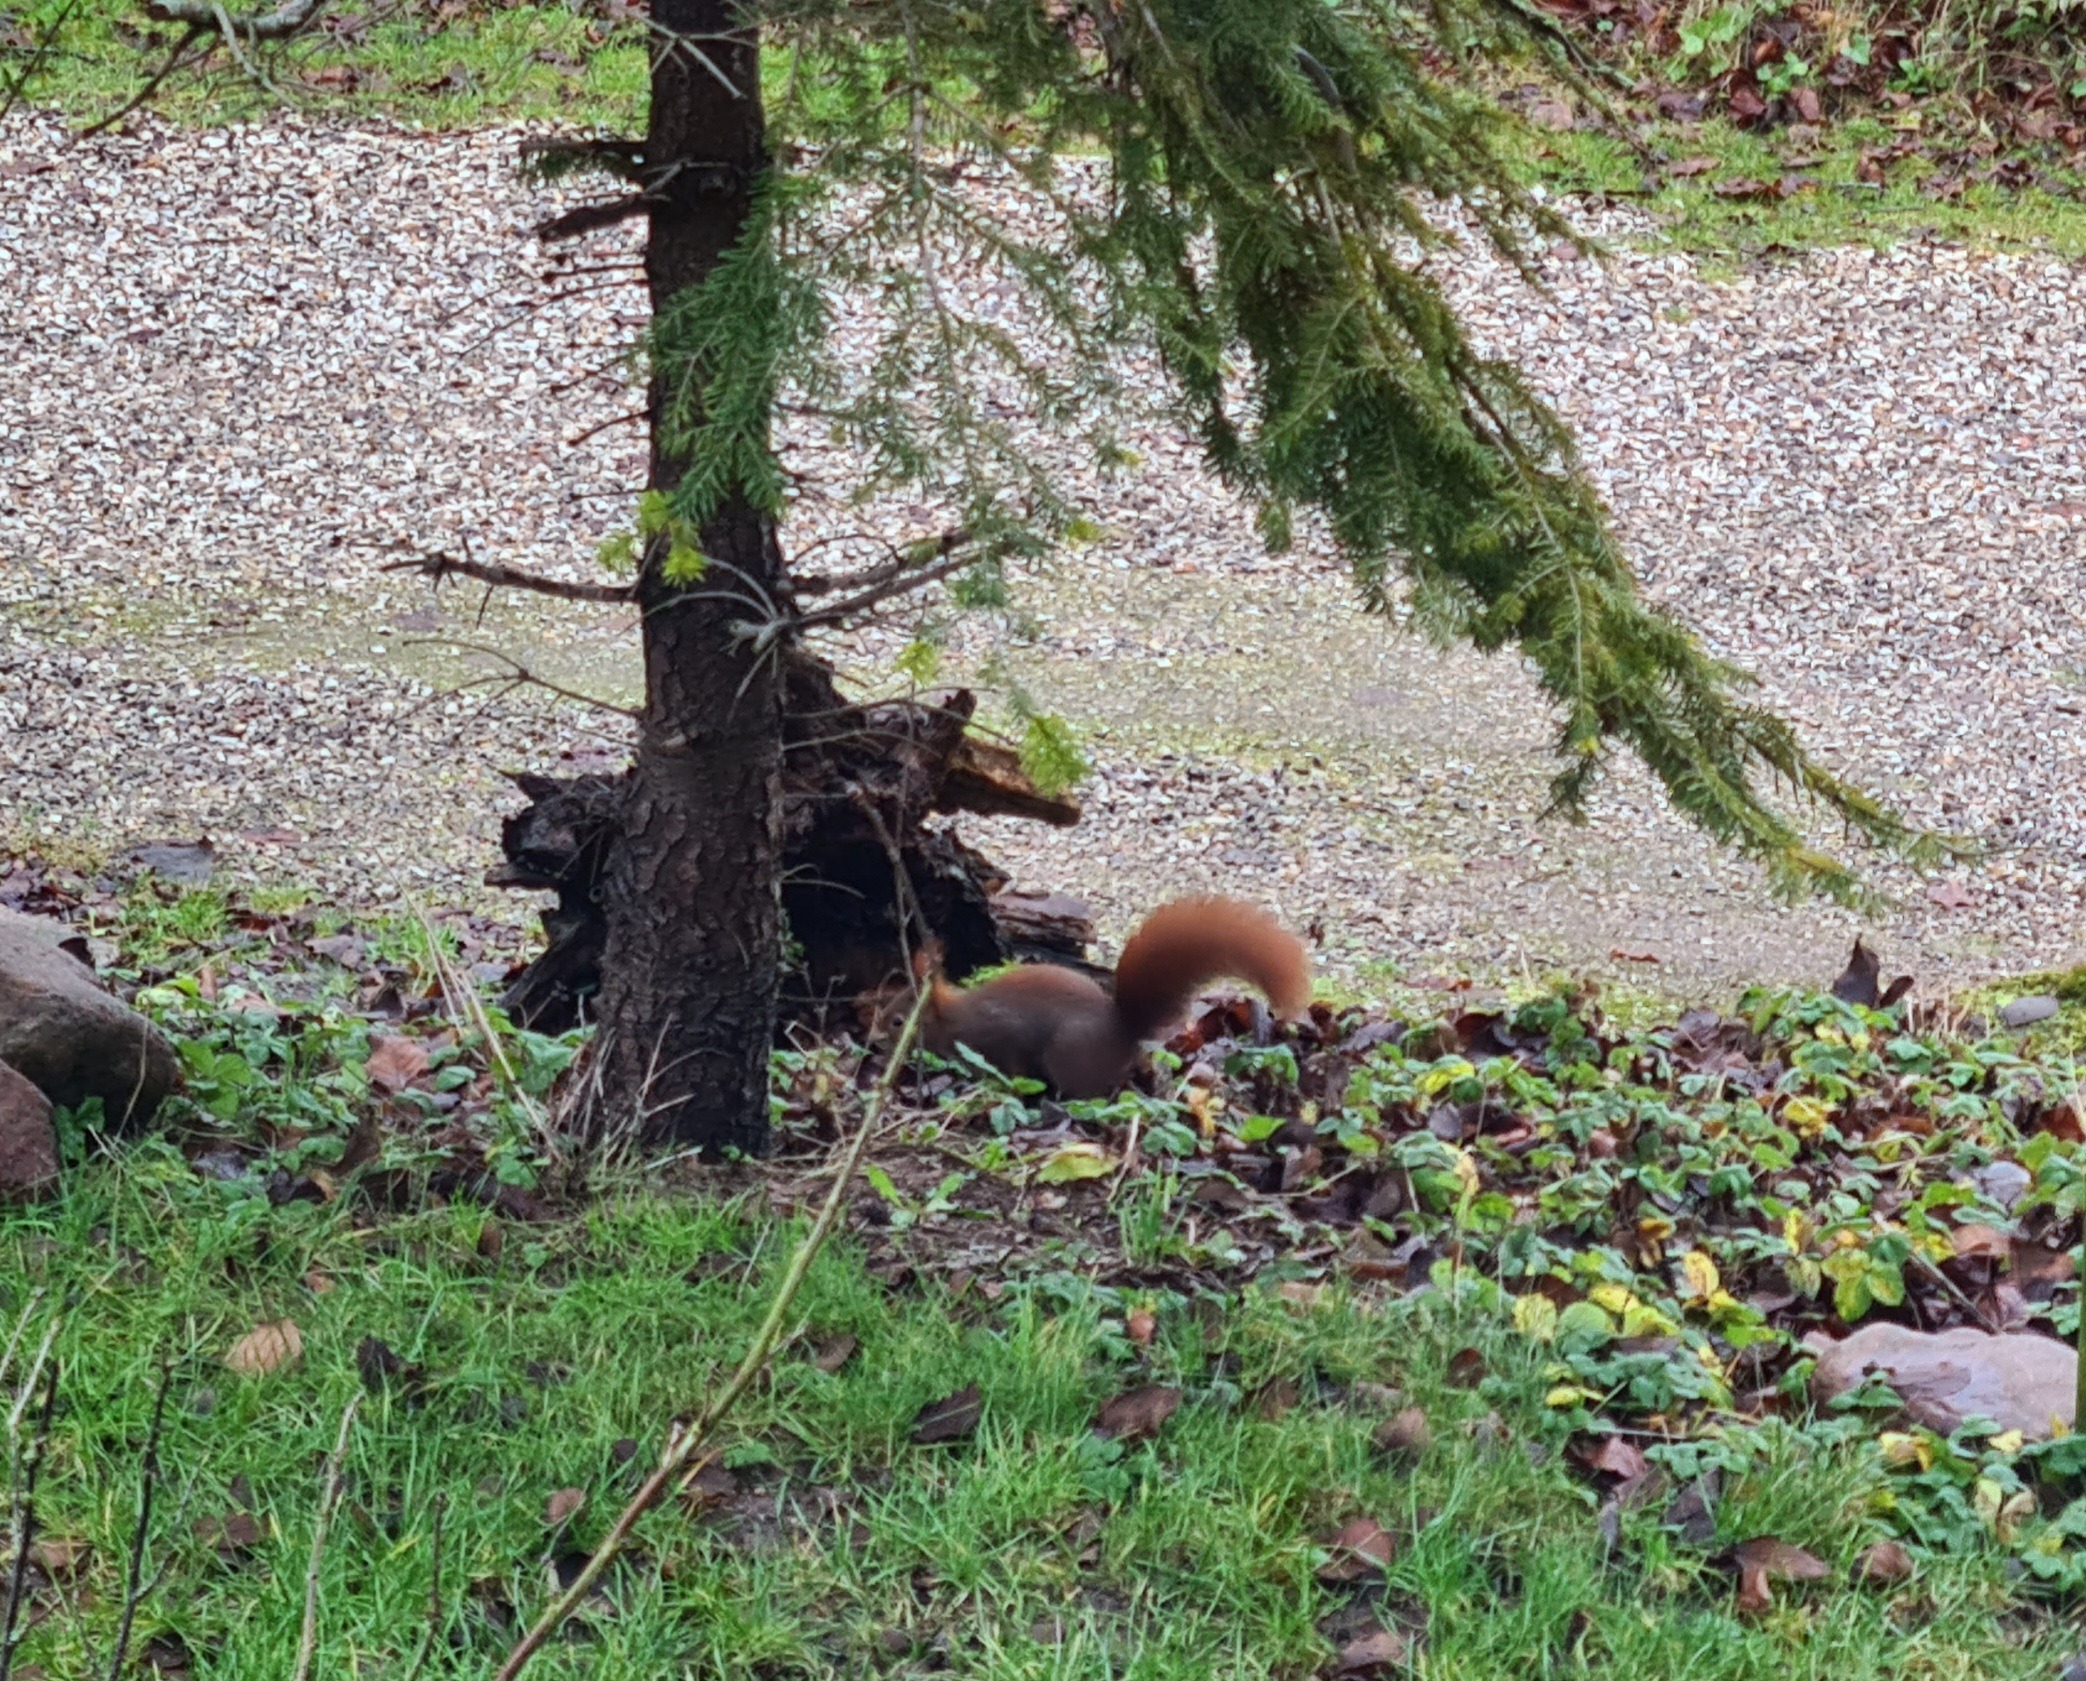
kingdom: Animalia
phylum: Chordata
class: Mammalia
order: Rodentia
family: Sciuridae
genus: Sciurus
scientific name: Sciurus vulgaris
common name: Egern
